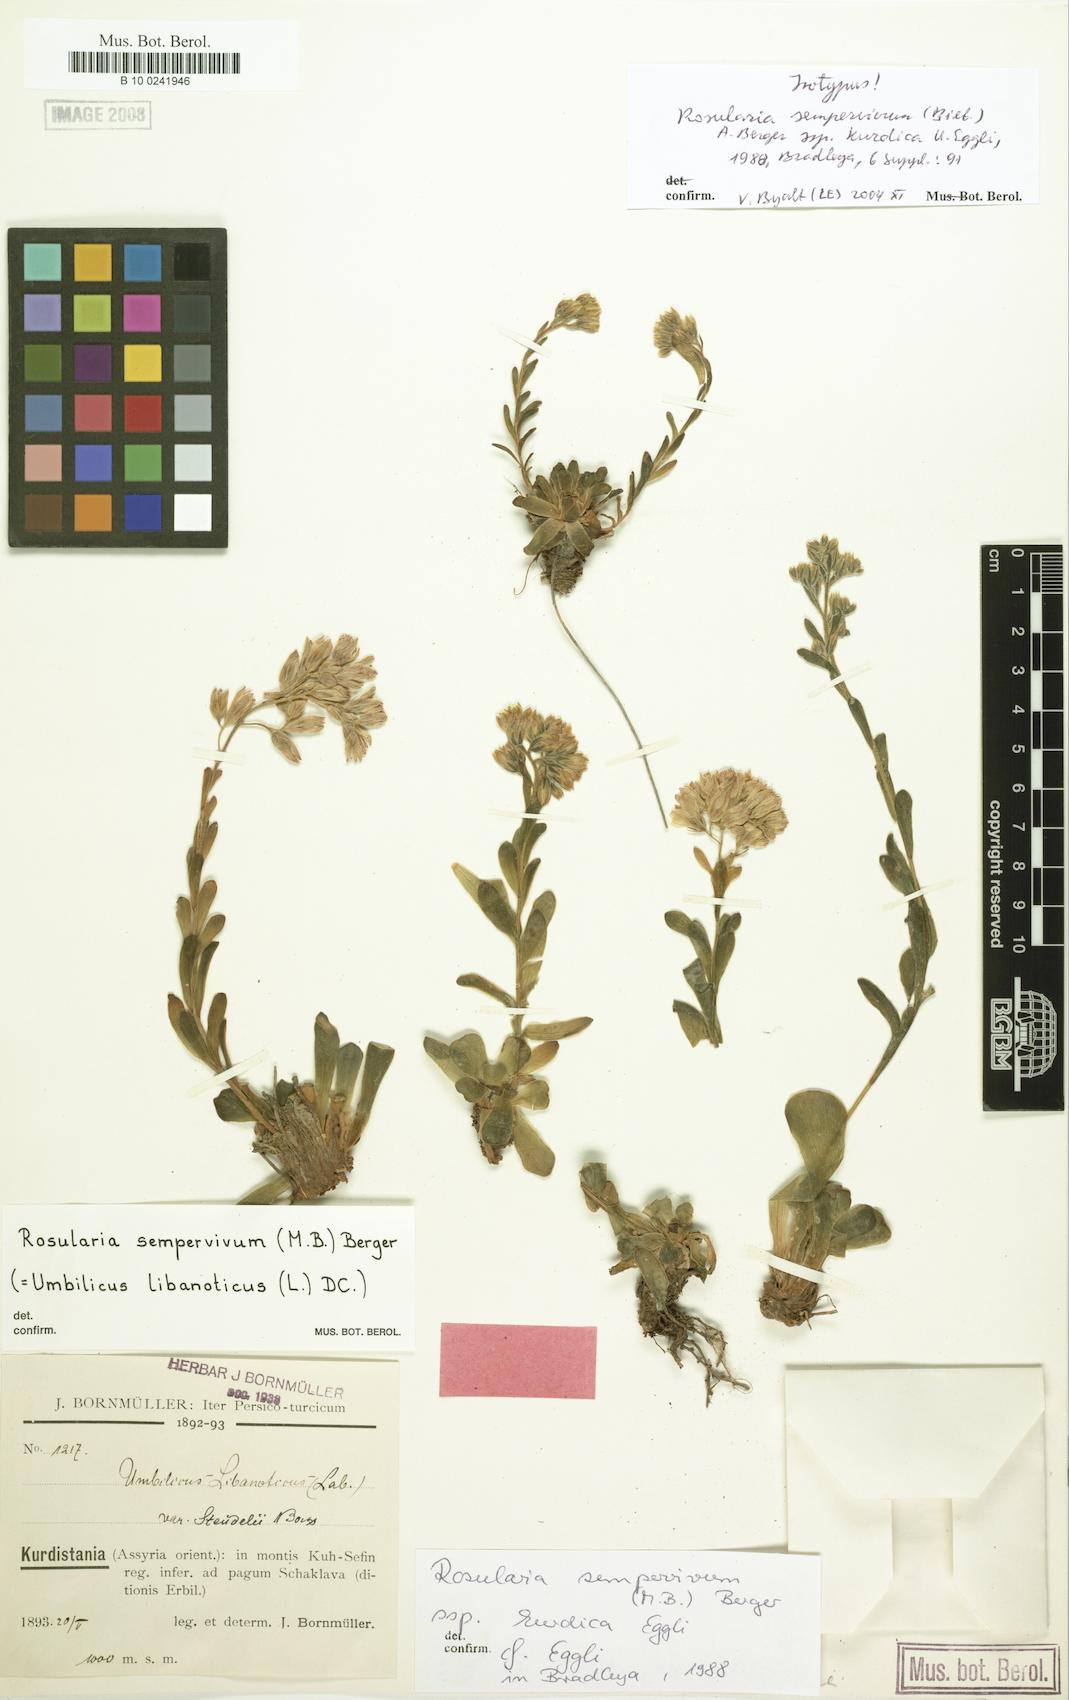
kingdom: Plantae
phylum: Tracheophyta
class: Magnoliopsida
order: Saxifragales
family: Crassulaceae
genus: Rosularia
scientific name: Rosularia sempervivum
